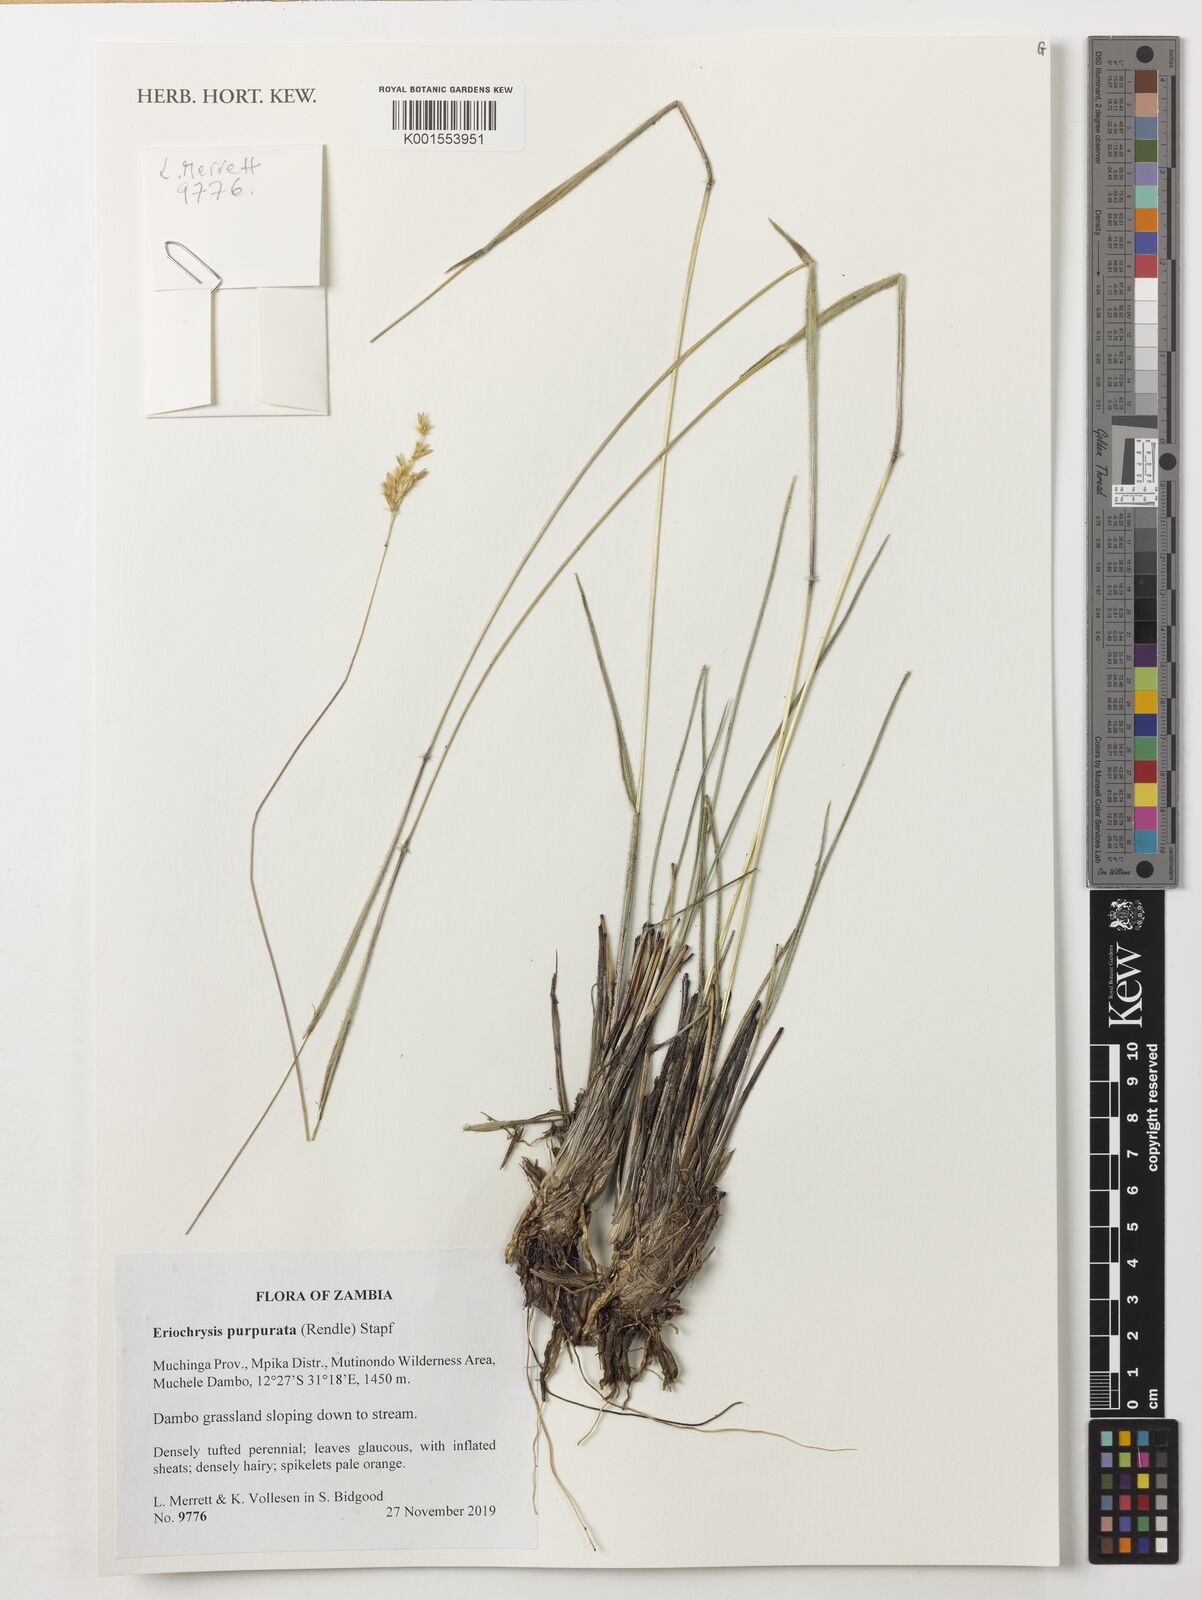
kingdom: Plantae
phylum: Tracheophyta
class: Liliopsida
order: Poales
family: Poaceae
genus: Eriochrysis
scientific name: Eriochrysis purpurata
